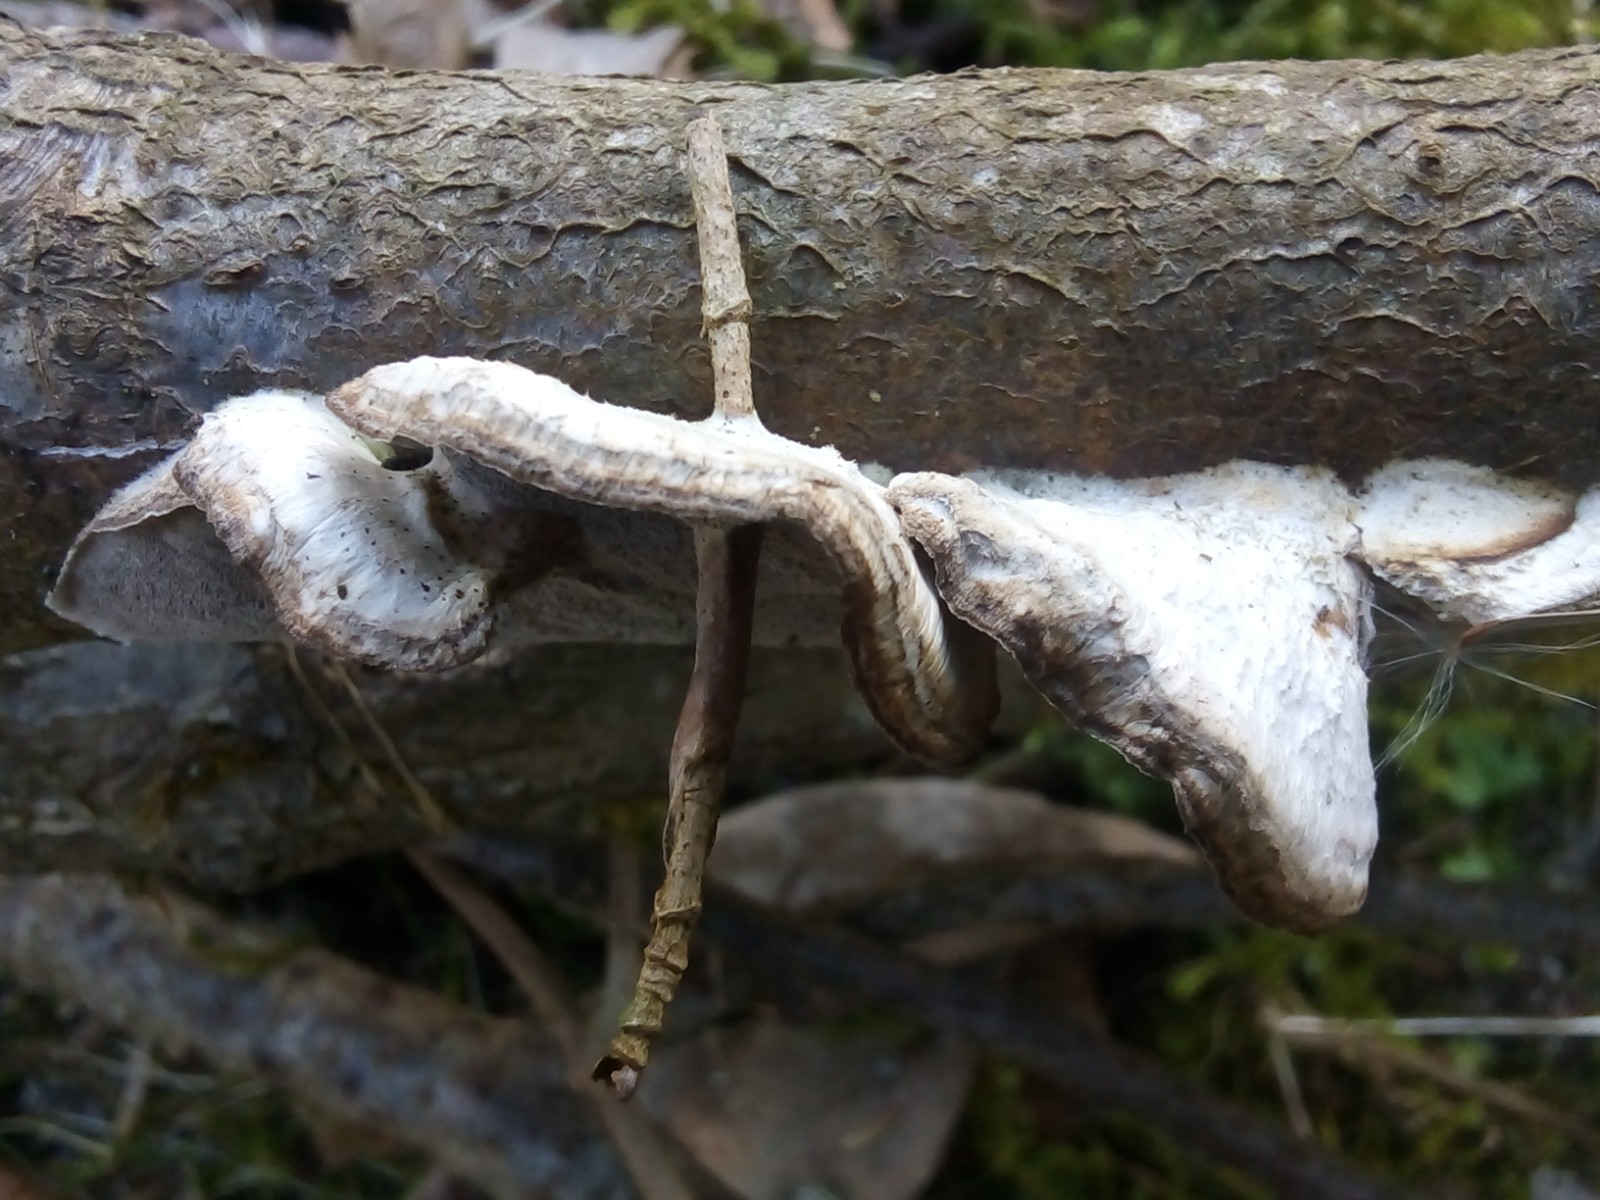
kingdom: Fungi
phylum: Basidiomycota
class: Agaricomycetes
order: Polyporales
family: Phanerochaetaceae
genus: Bjerkandera
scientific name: Bjerkandera adusta
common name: sveden sodporesvamp
